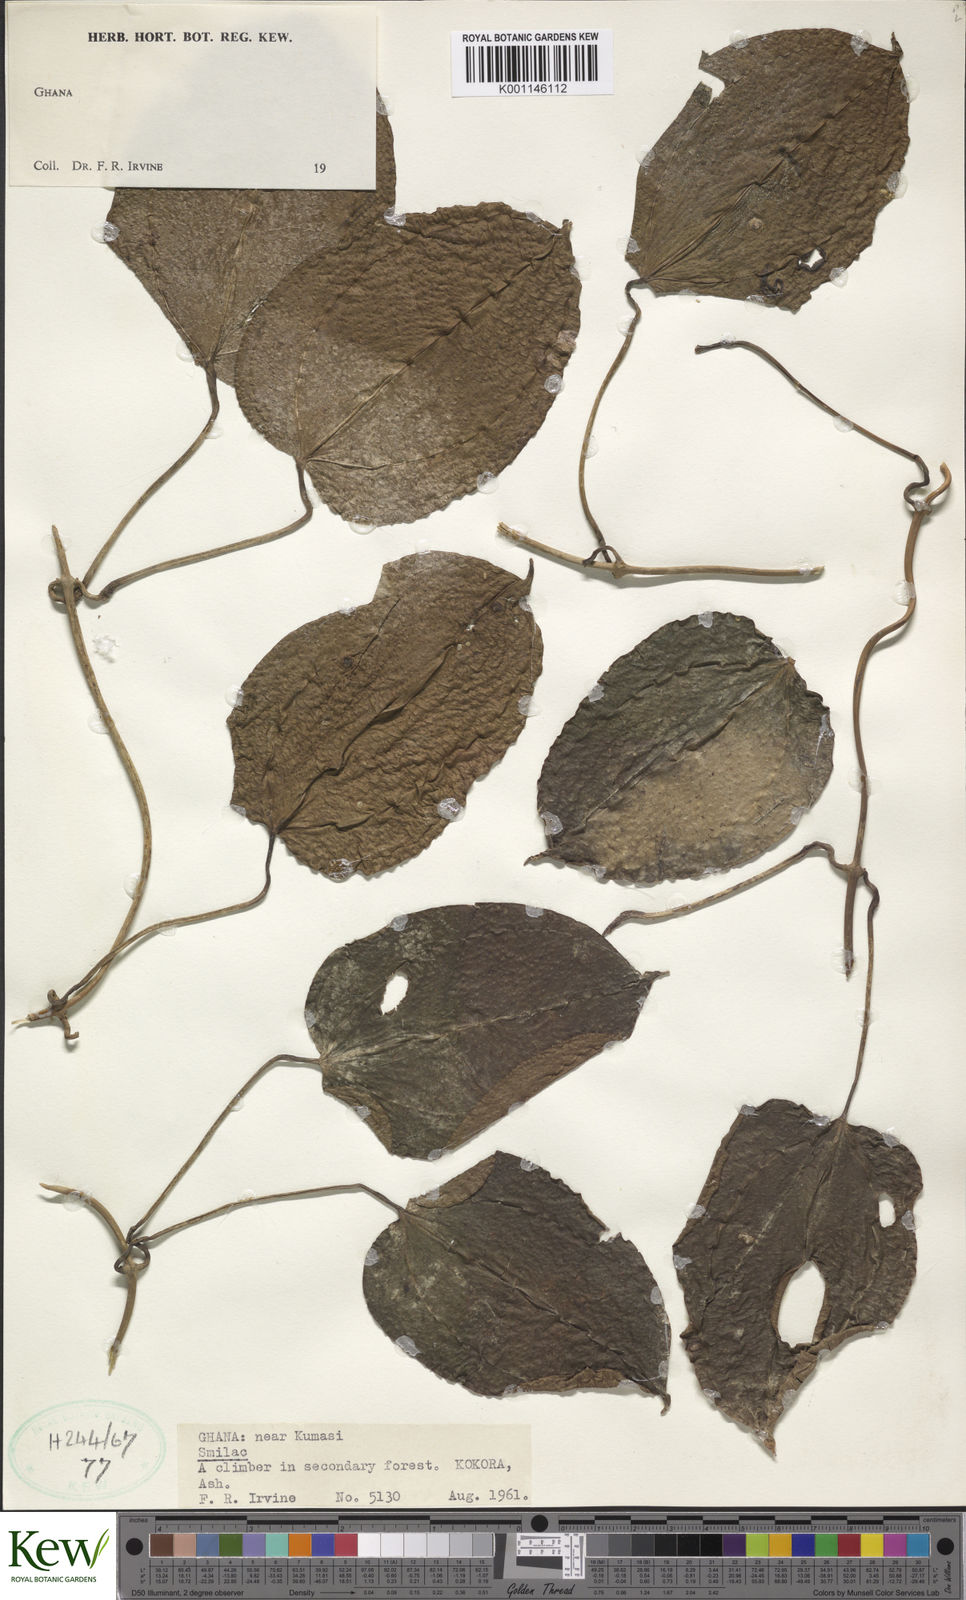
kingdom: Plantae
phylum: Tracheophyta
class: Liliopsida
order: Dioscoreales
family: Dioscoreaceae
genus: Dioscorea
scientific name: Dioscorea
